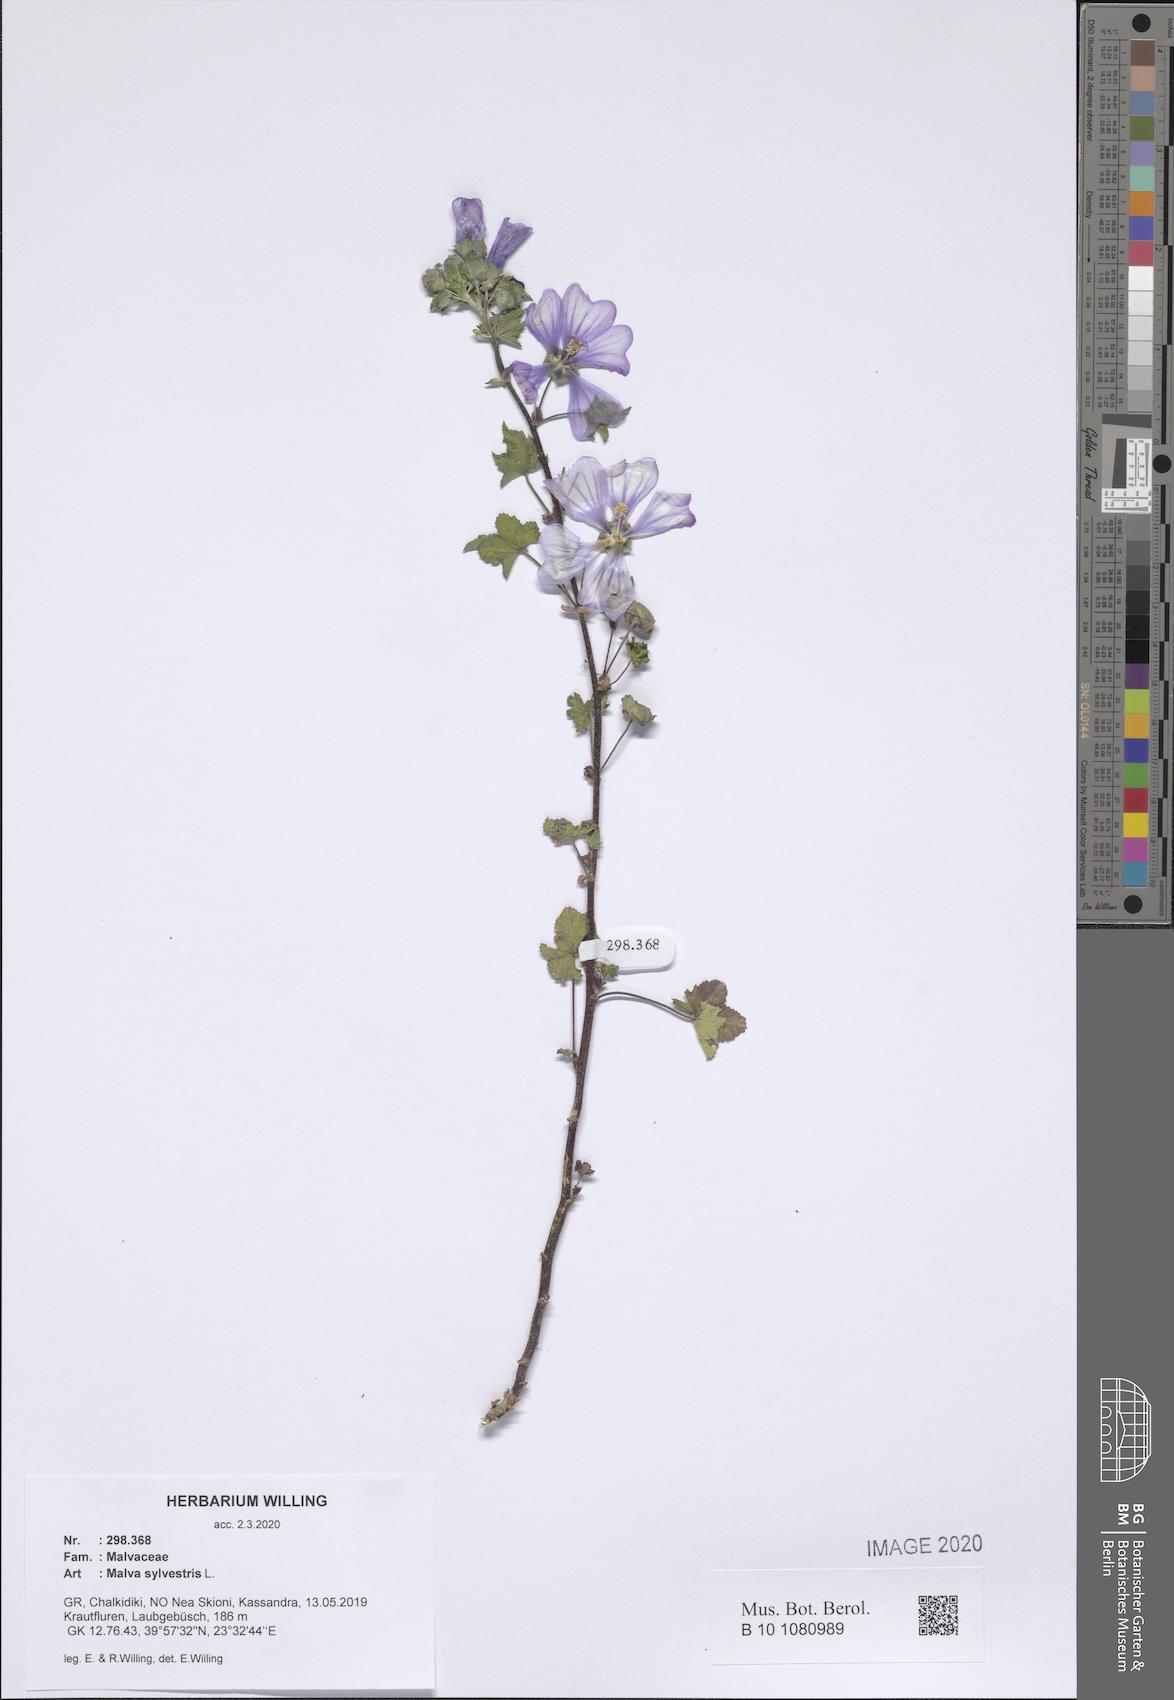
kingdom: Plantae
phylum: Tracheophyta
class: Magnoliopsida
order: Malvales
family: Malvaceae
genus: Malva
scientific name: Malva sylvestris
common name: Common mallow
